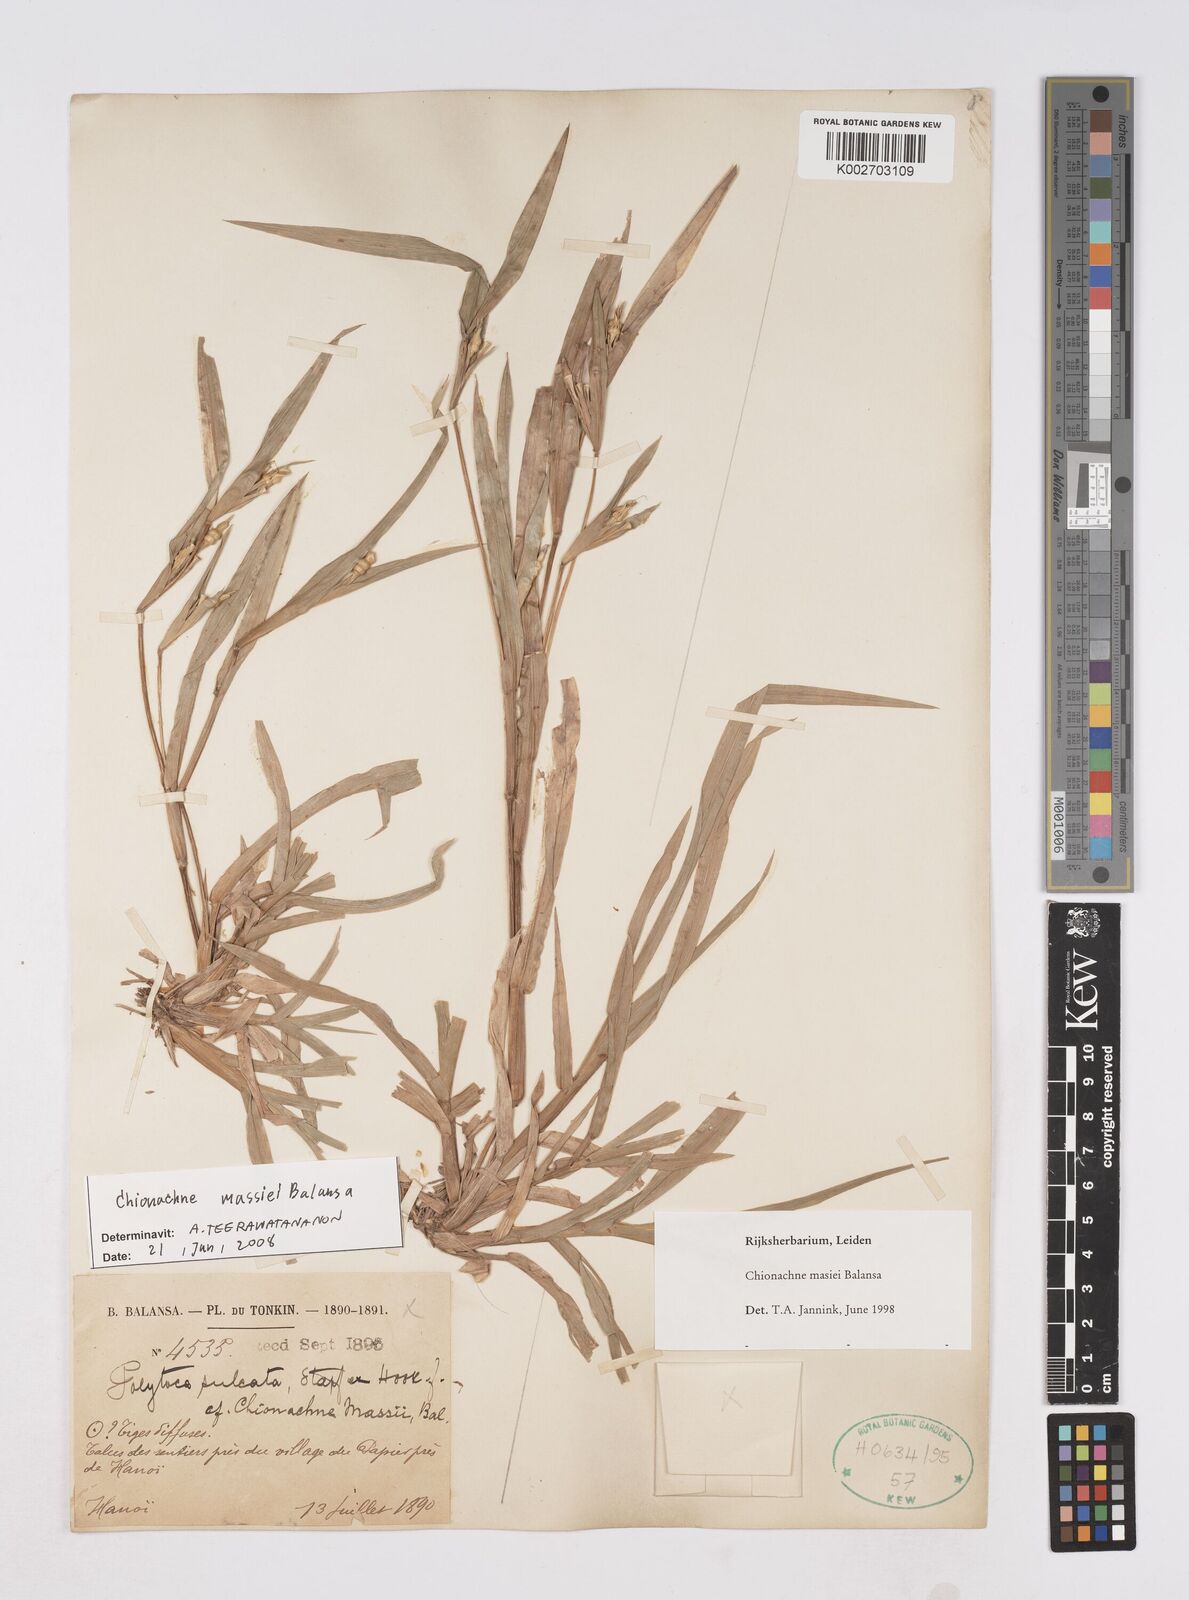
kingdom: Plantae
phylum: Tracheophyta
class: Liliopsida
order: Poales
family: Poaceae
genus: Polytoca
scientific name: Polytoca massiei
